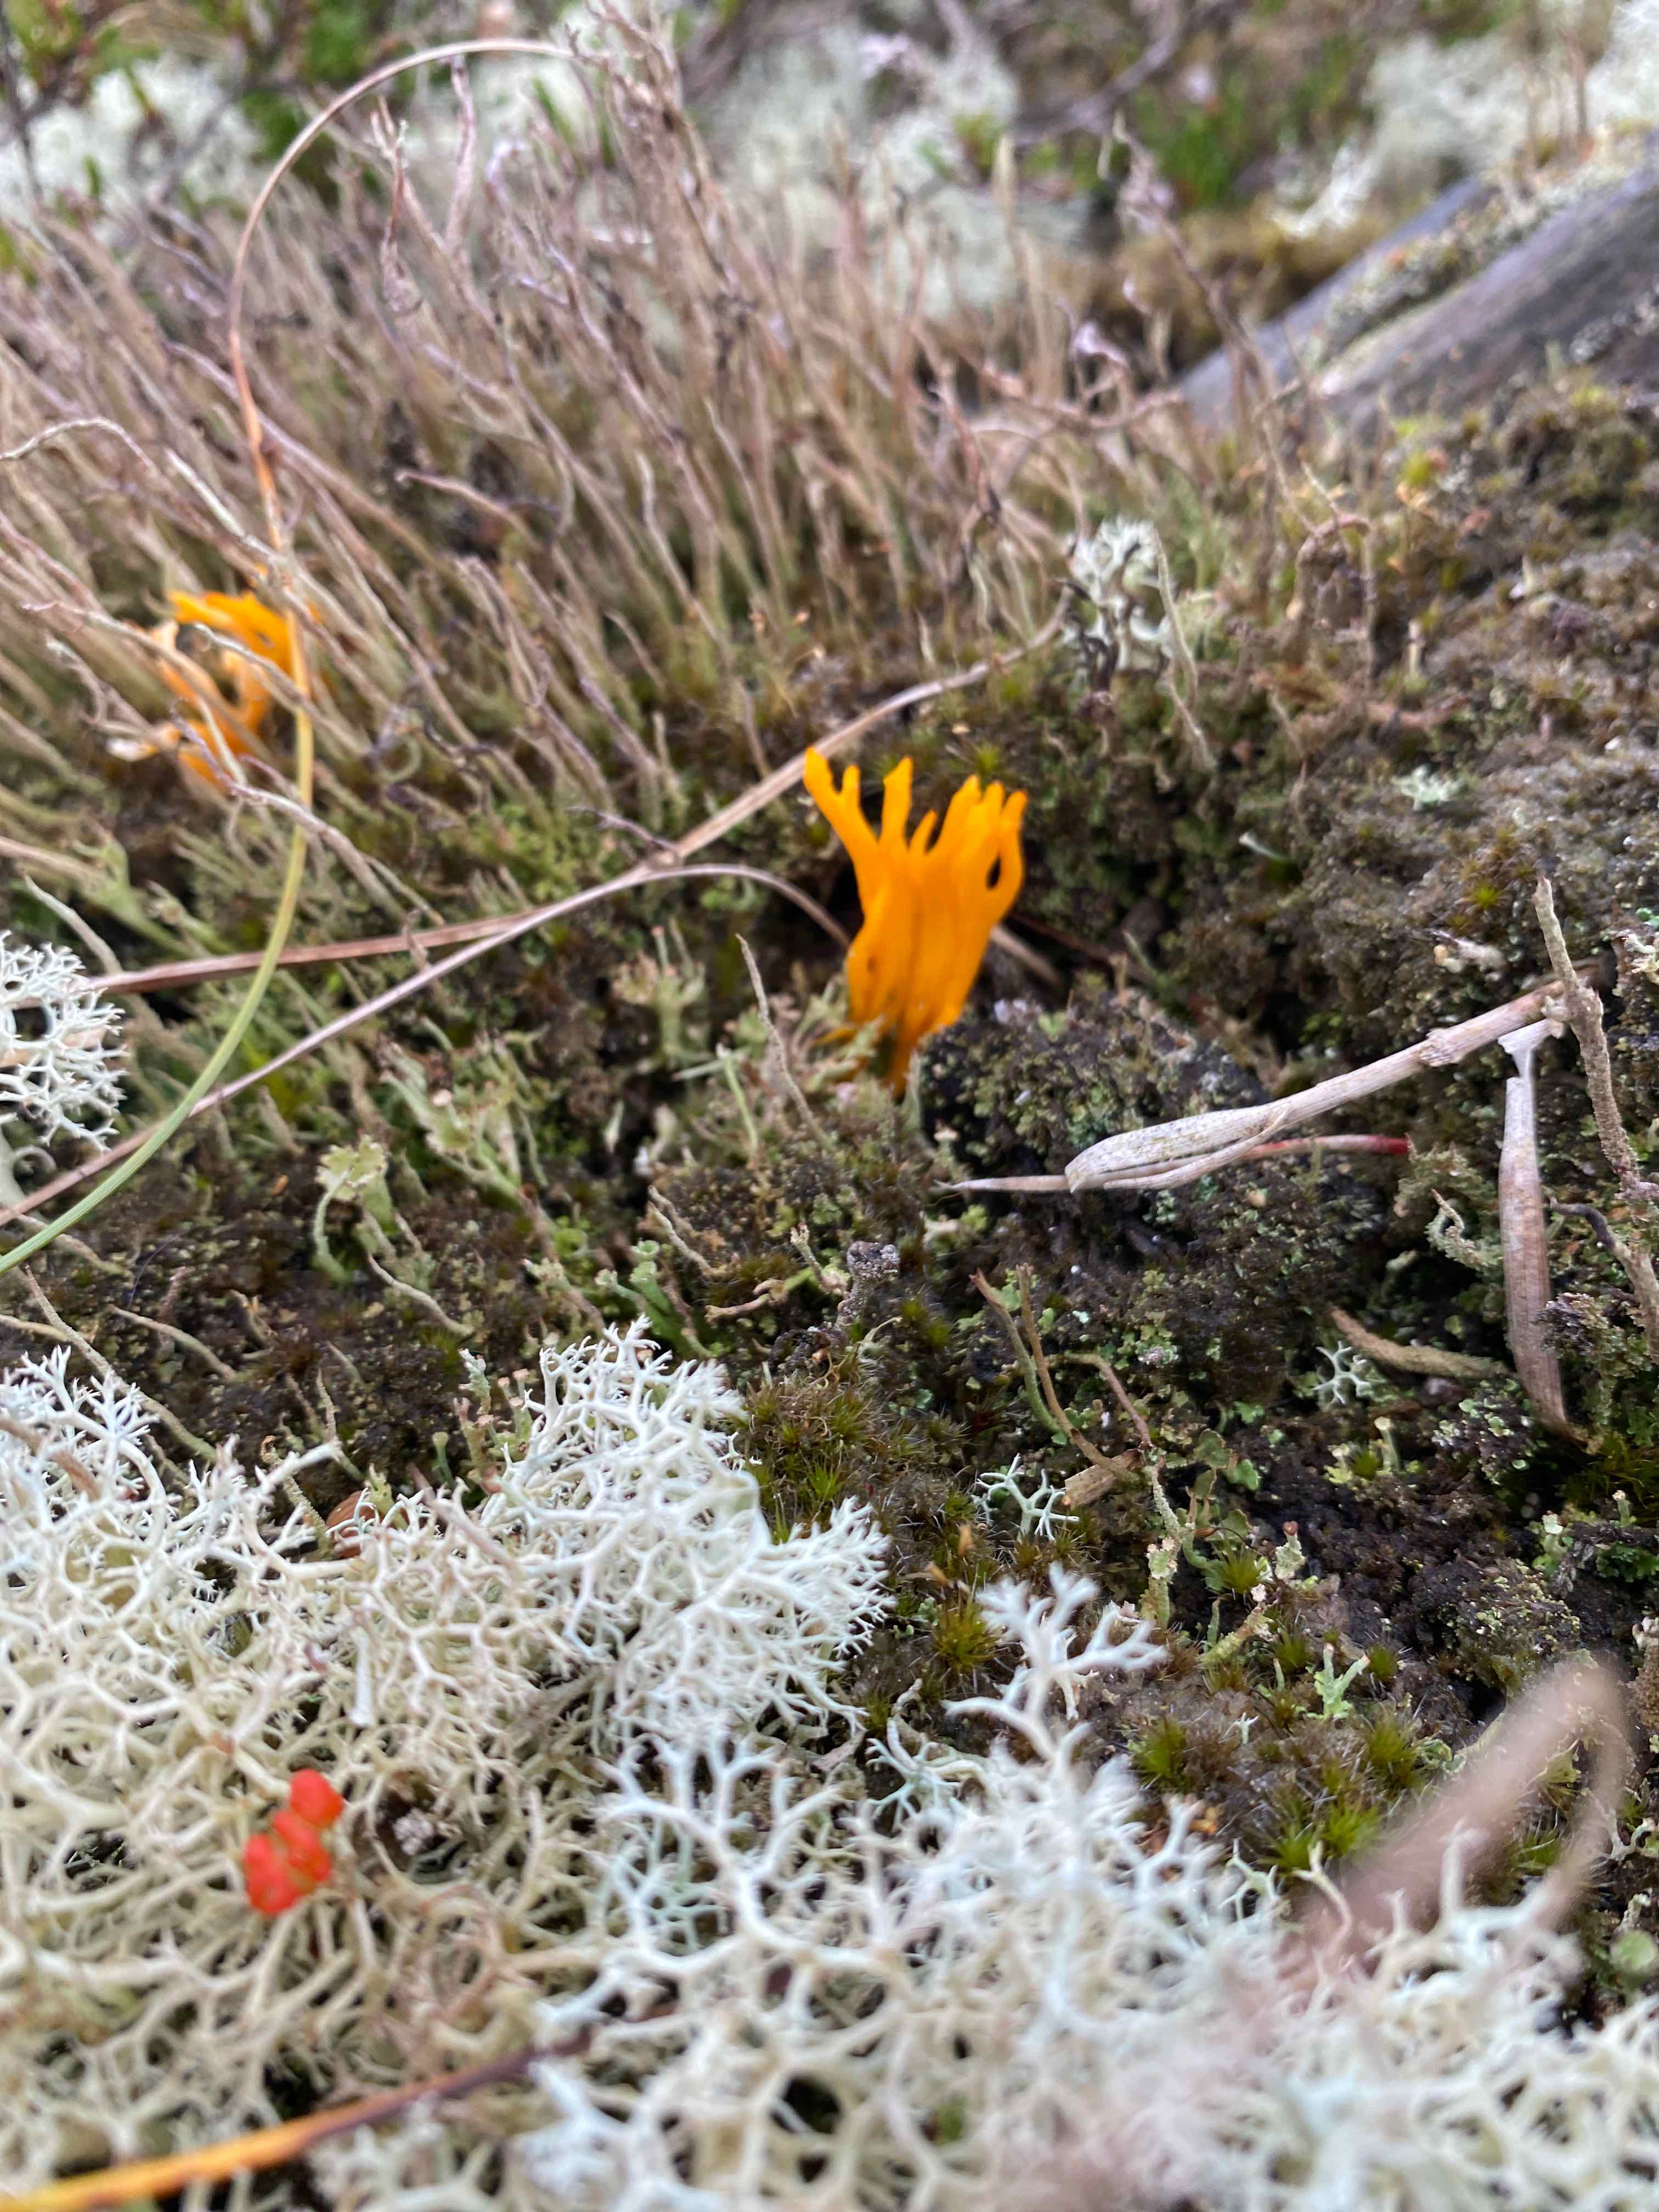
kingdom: Fungi
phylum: Basidiomycota
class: Dacrymycetes
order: Dacrymycetales
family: Dacrymycetaceae
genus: Calocera
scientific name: Calocera viscosa
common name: almindelig guldgaffel
